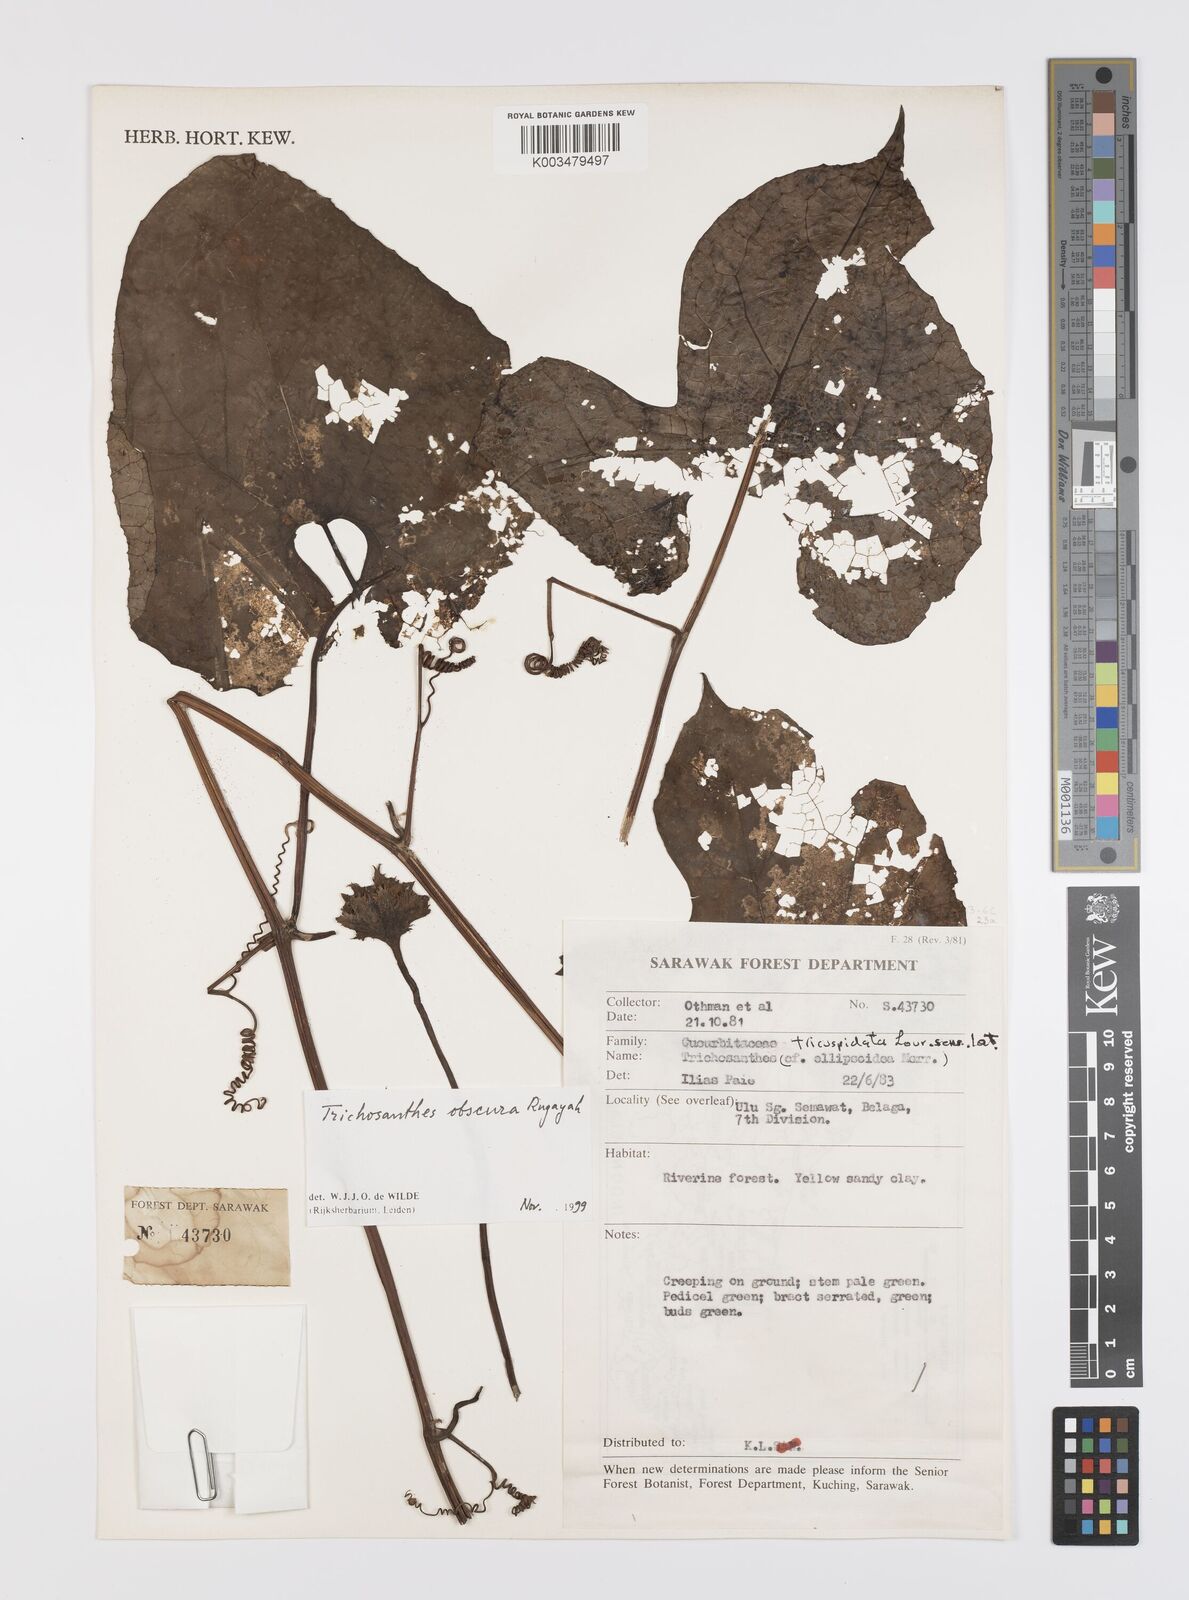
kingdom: Plantae
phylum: Tracheophyta
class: Magnoliopsida
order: Cucurbitales
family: Cucurbitaceae
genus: Trichosanthes
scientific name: Trichosanthes obscura
